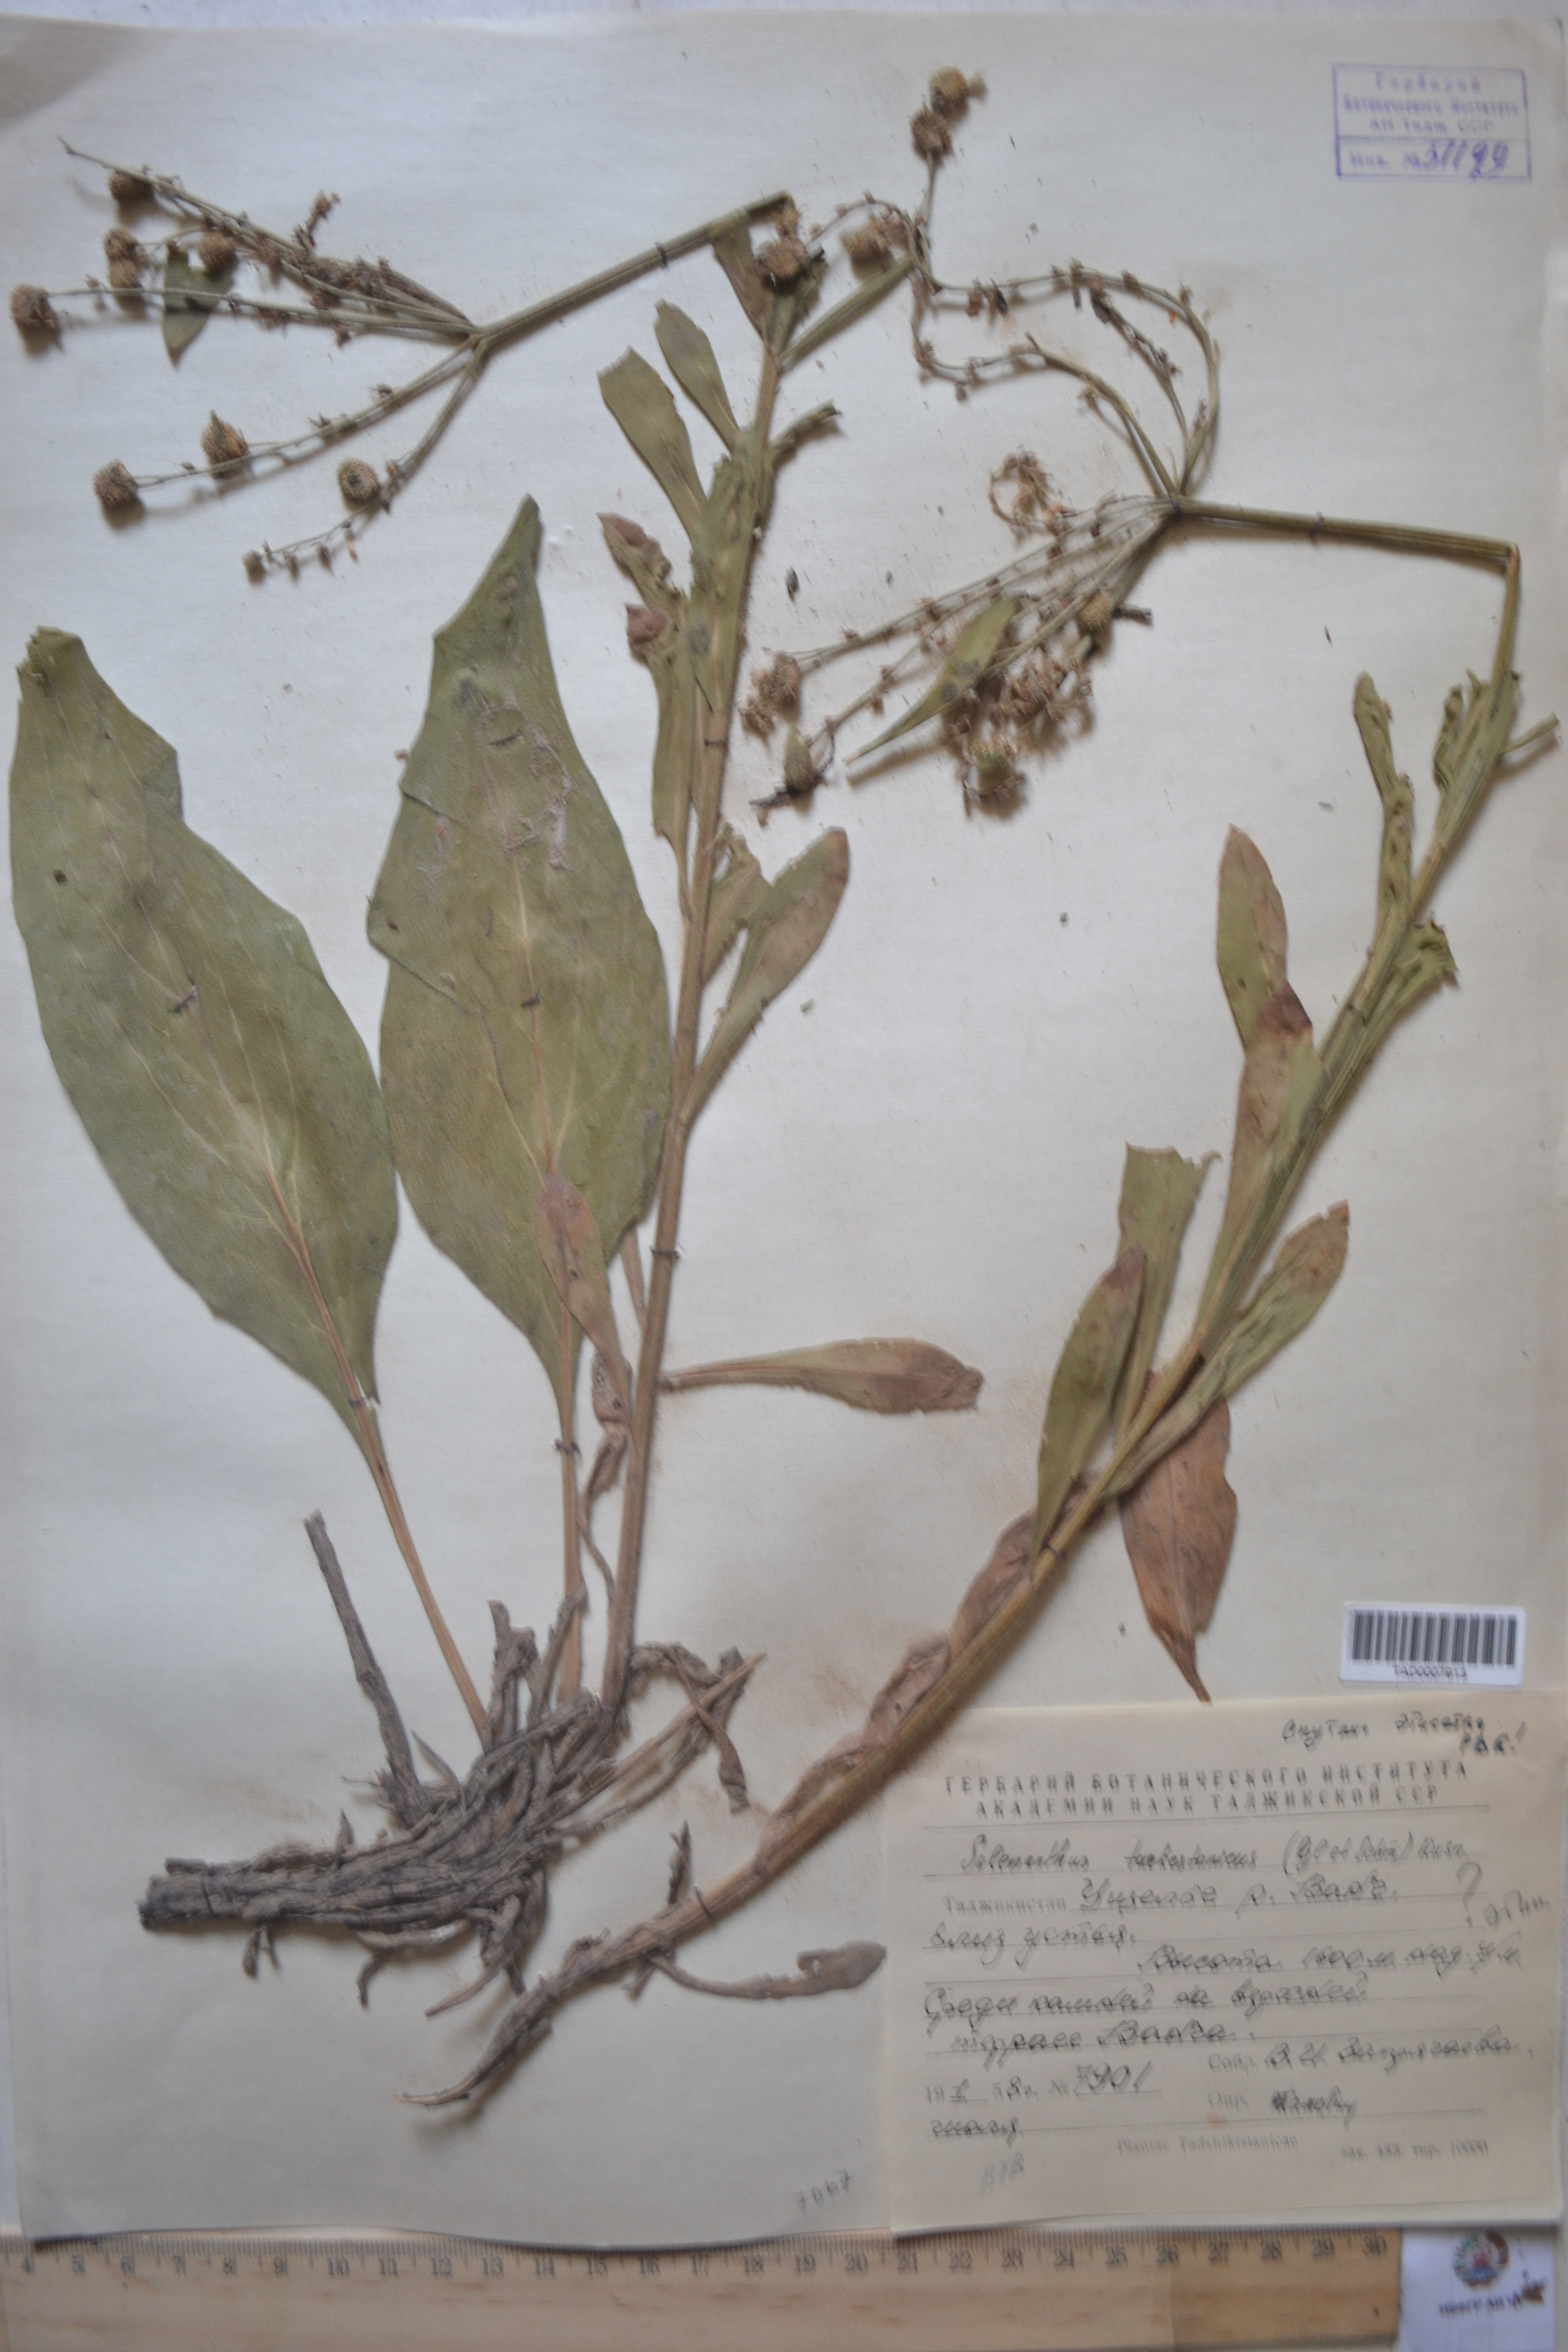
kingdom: Plantae
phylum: Tracheophyta
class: Magnoliopsida
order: Boraginales
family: Boraginaceae
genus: Solenanthus
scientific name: Solenanthus turkestanicus
